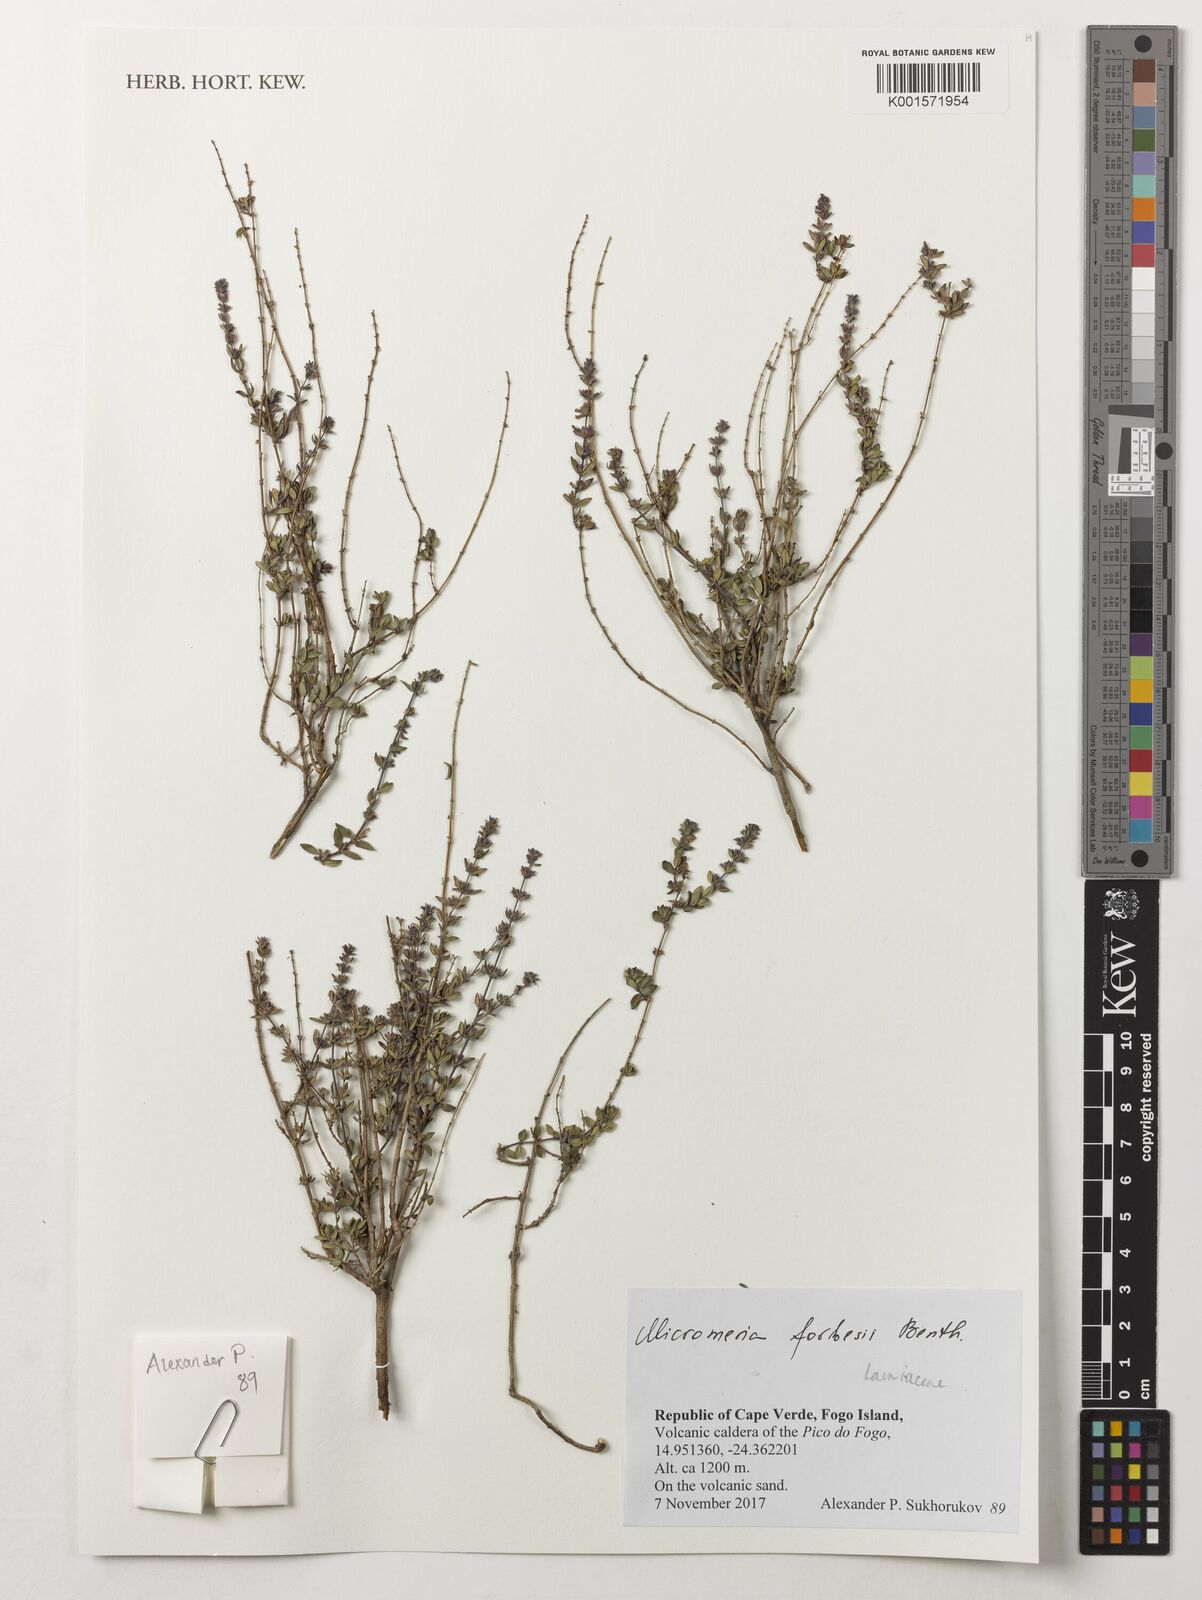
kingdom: Plantae
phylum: Tracheophyta
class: Magnoliopsida
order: Lamiales
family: Lamiaceae
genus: Micromeria
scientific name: Micromeria forbesii
